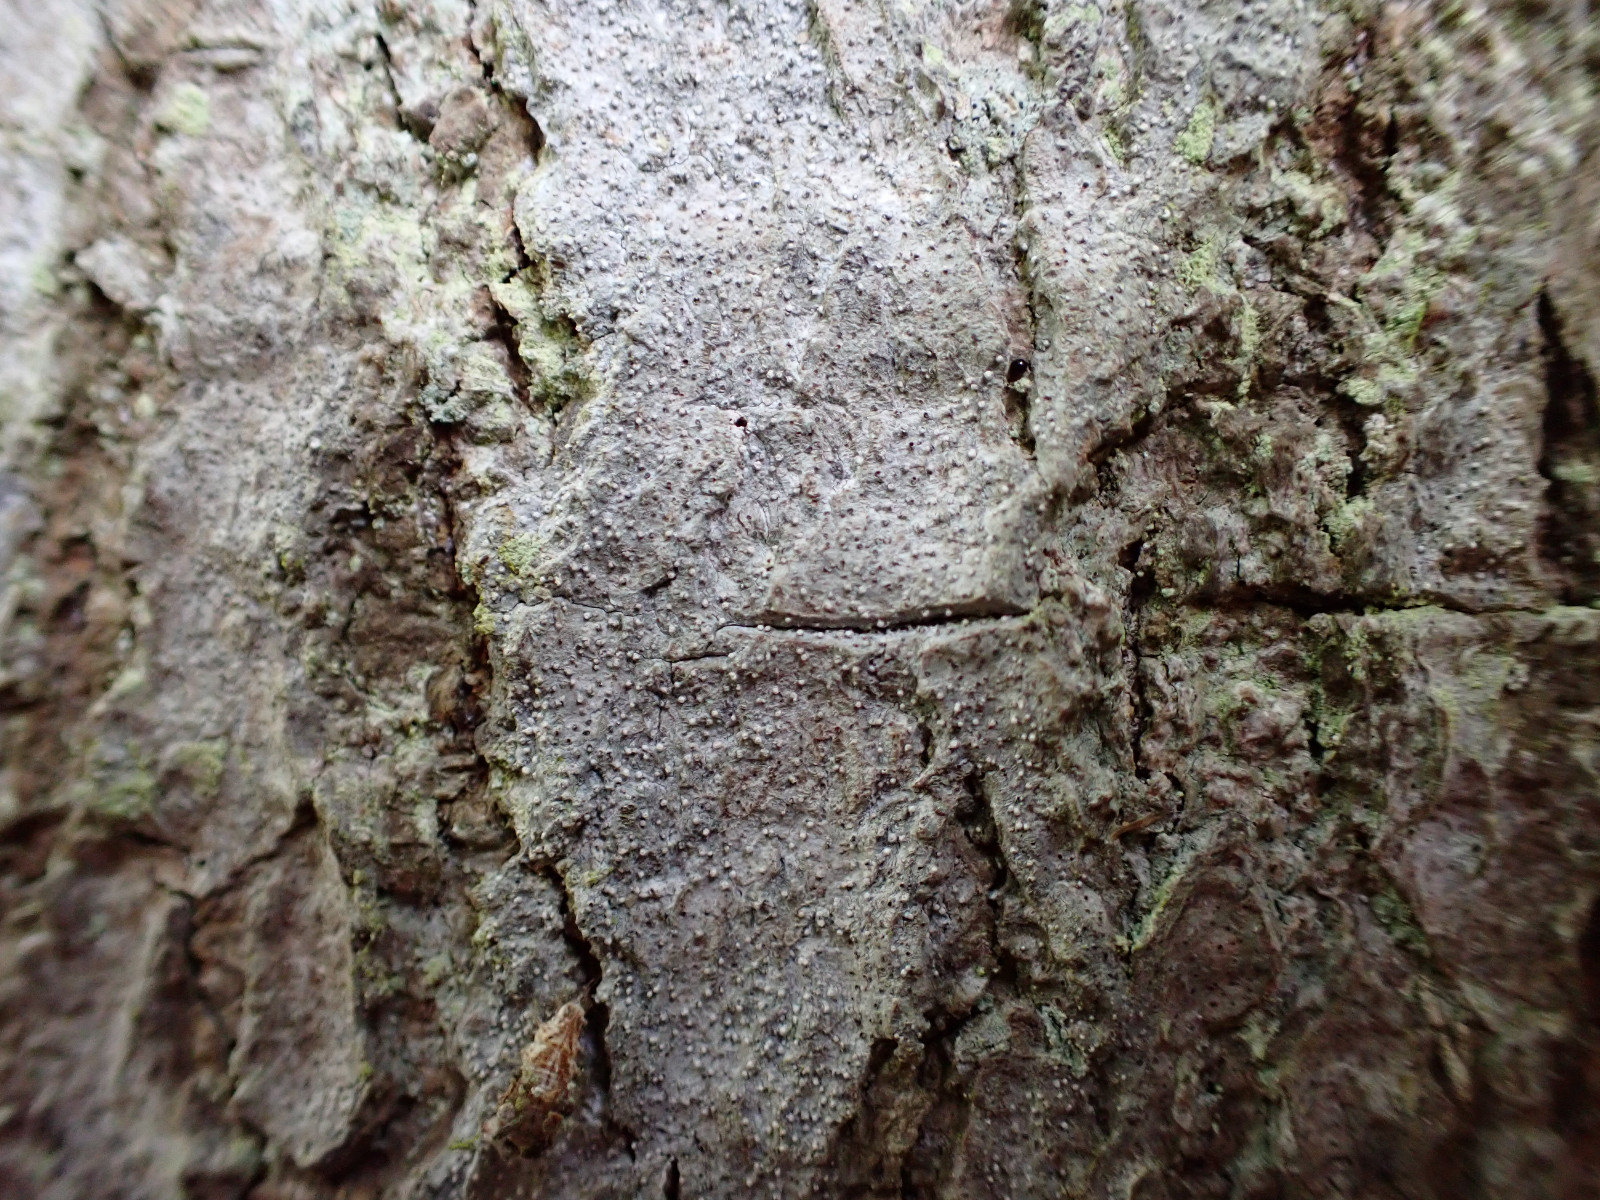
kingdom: Fungi
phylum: Ascomycota
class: Arthoniomycetes
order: Arthoniales
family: Roccellaceae
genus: Lecanactis
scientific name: Lecanactis abietina
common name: grå dugskivelav
